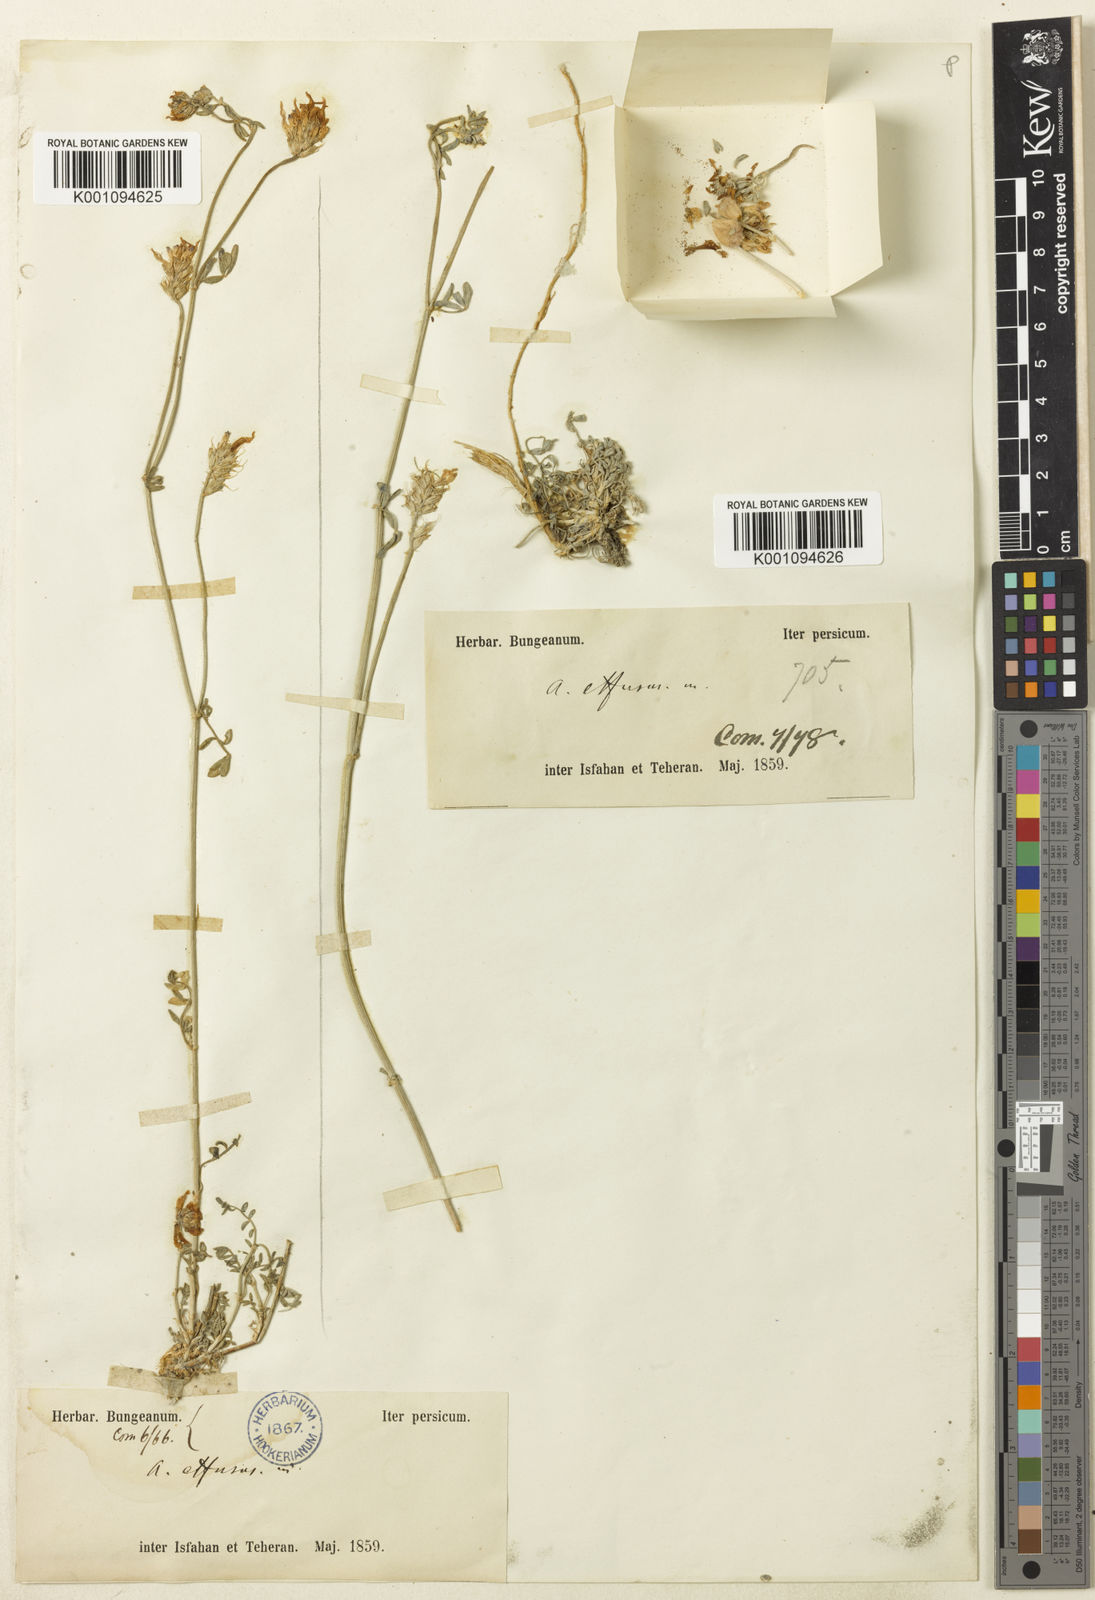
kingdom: Plantae
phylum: Tracheophyta
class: Magnoliopsida
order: Fabales
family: Fabaceae
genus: Astragalus
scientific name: Astragalus
